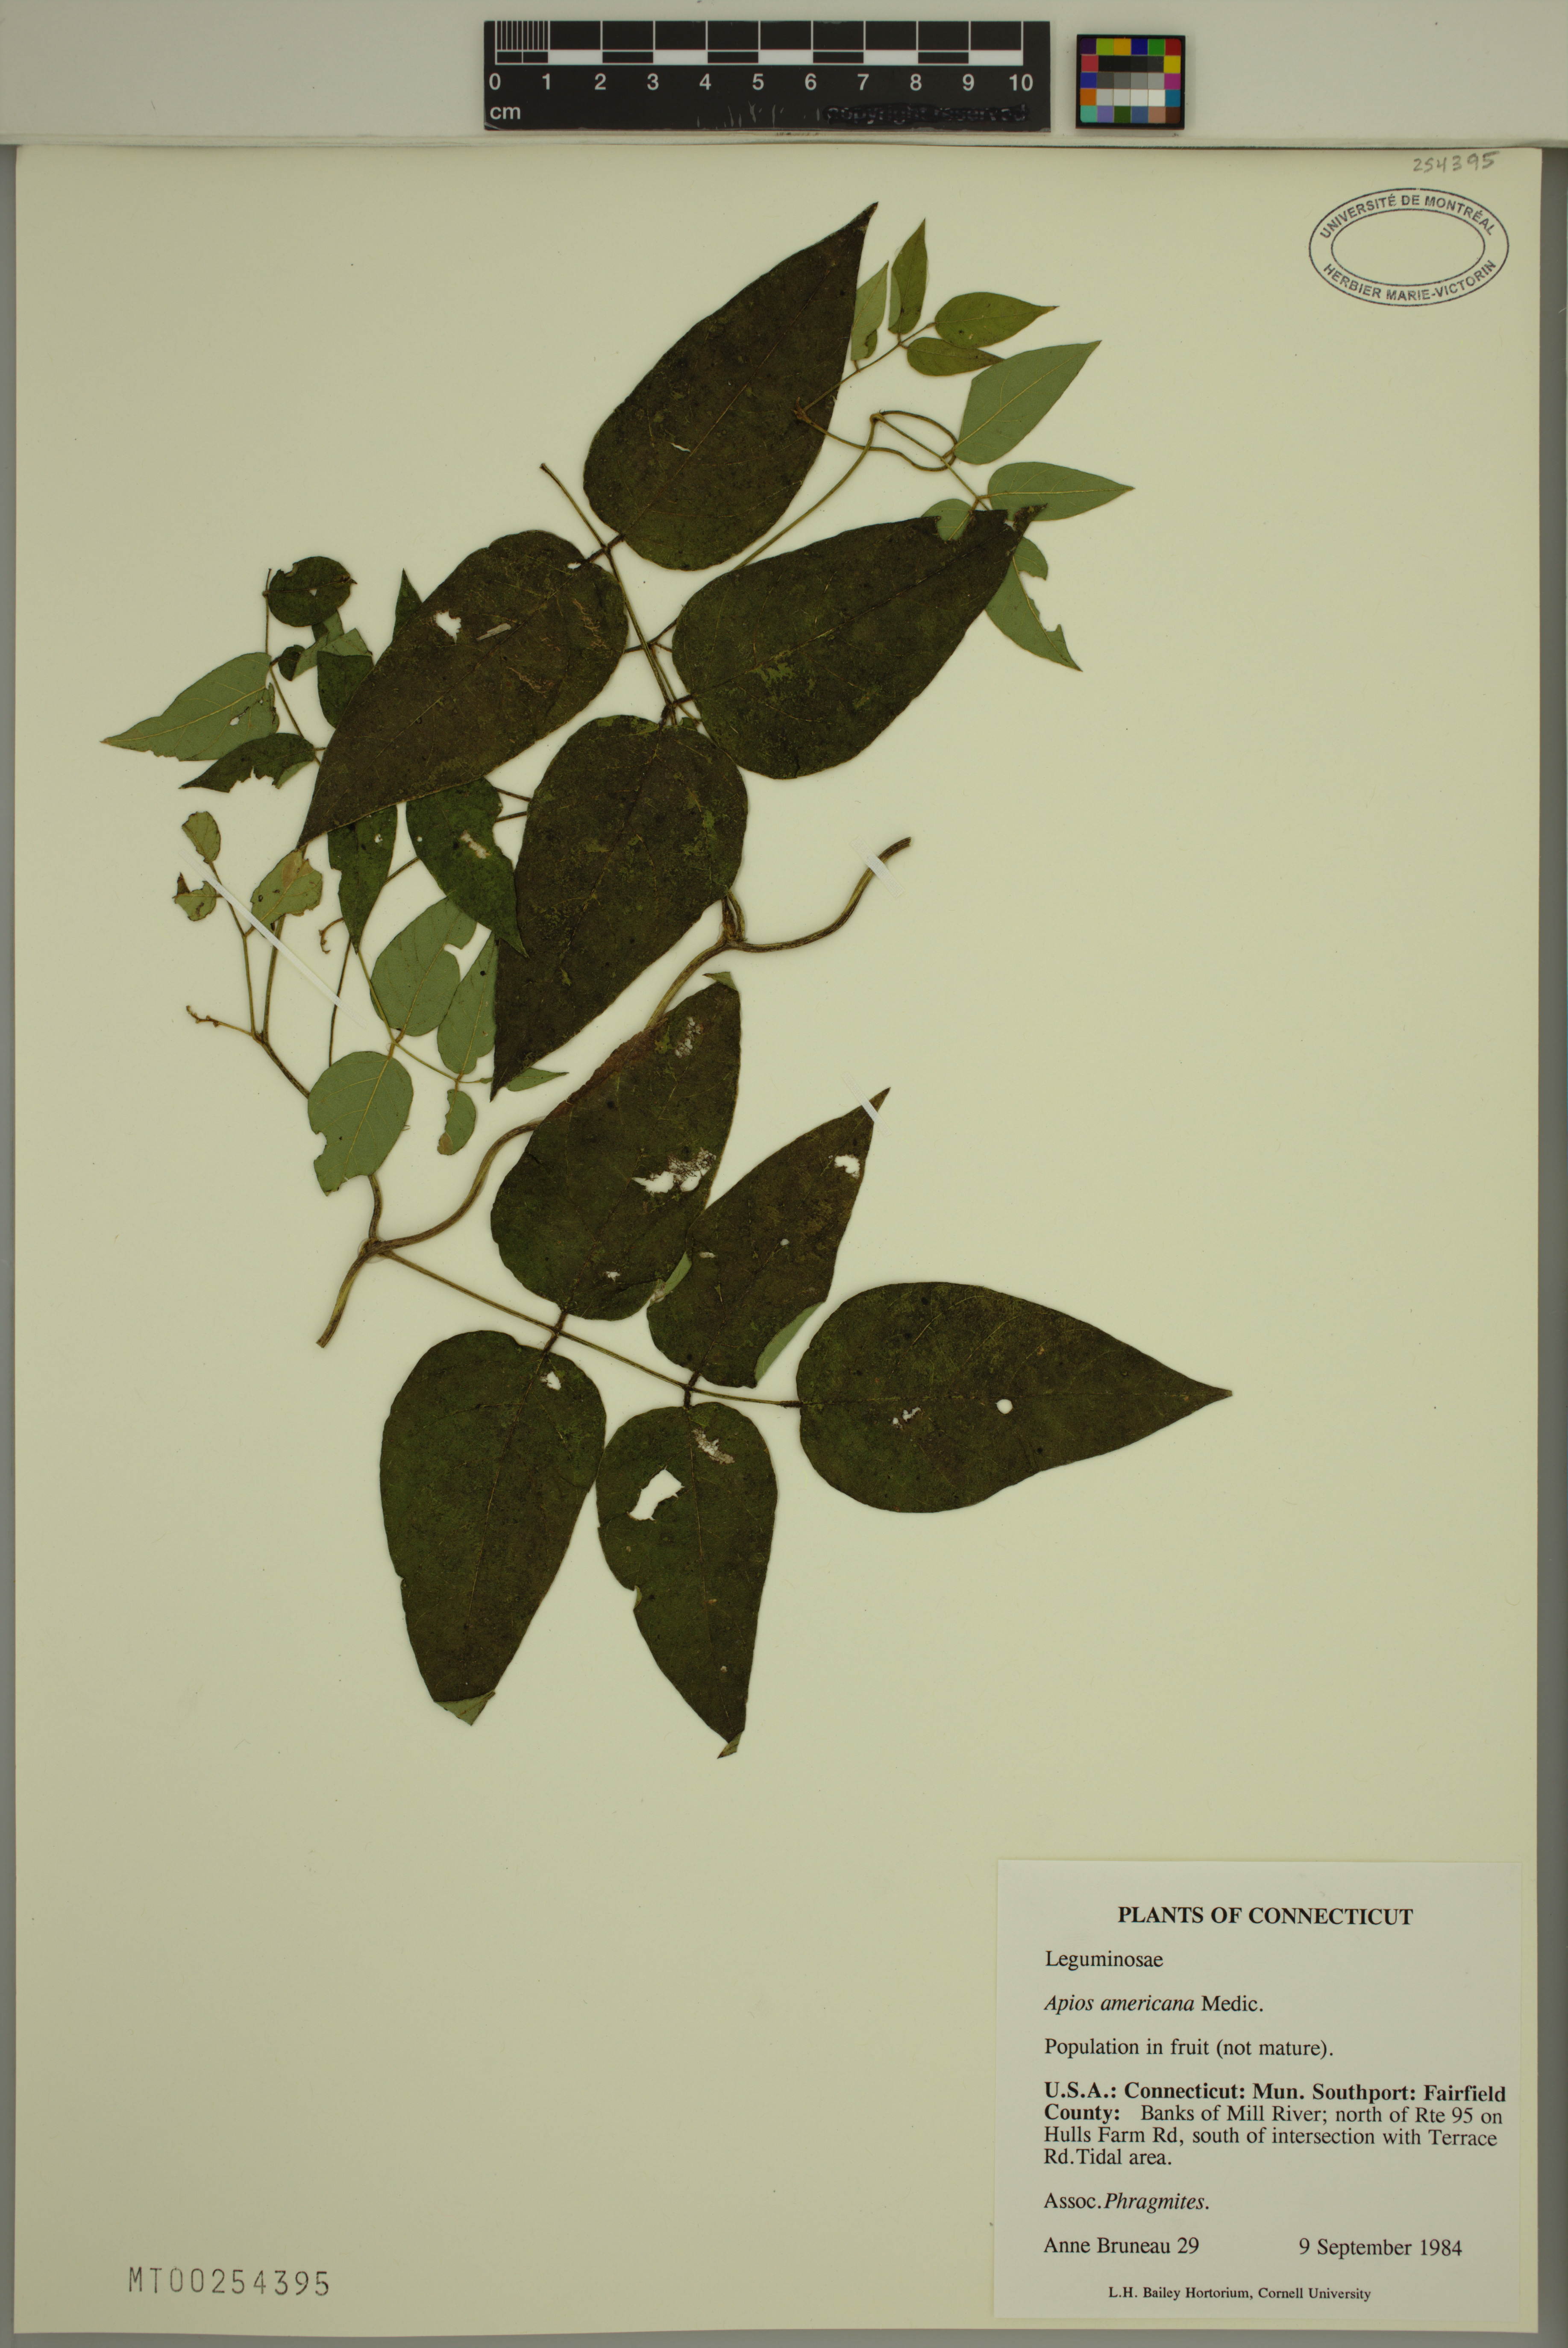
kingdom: Plantae
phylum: Tracheophyta
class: Magnoliopsida
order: Fabales
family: Fabaceae
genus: Apios
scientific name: Apios americana
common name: American potato-bean
